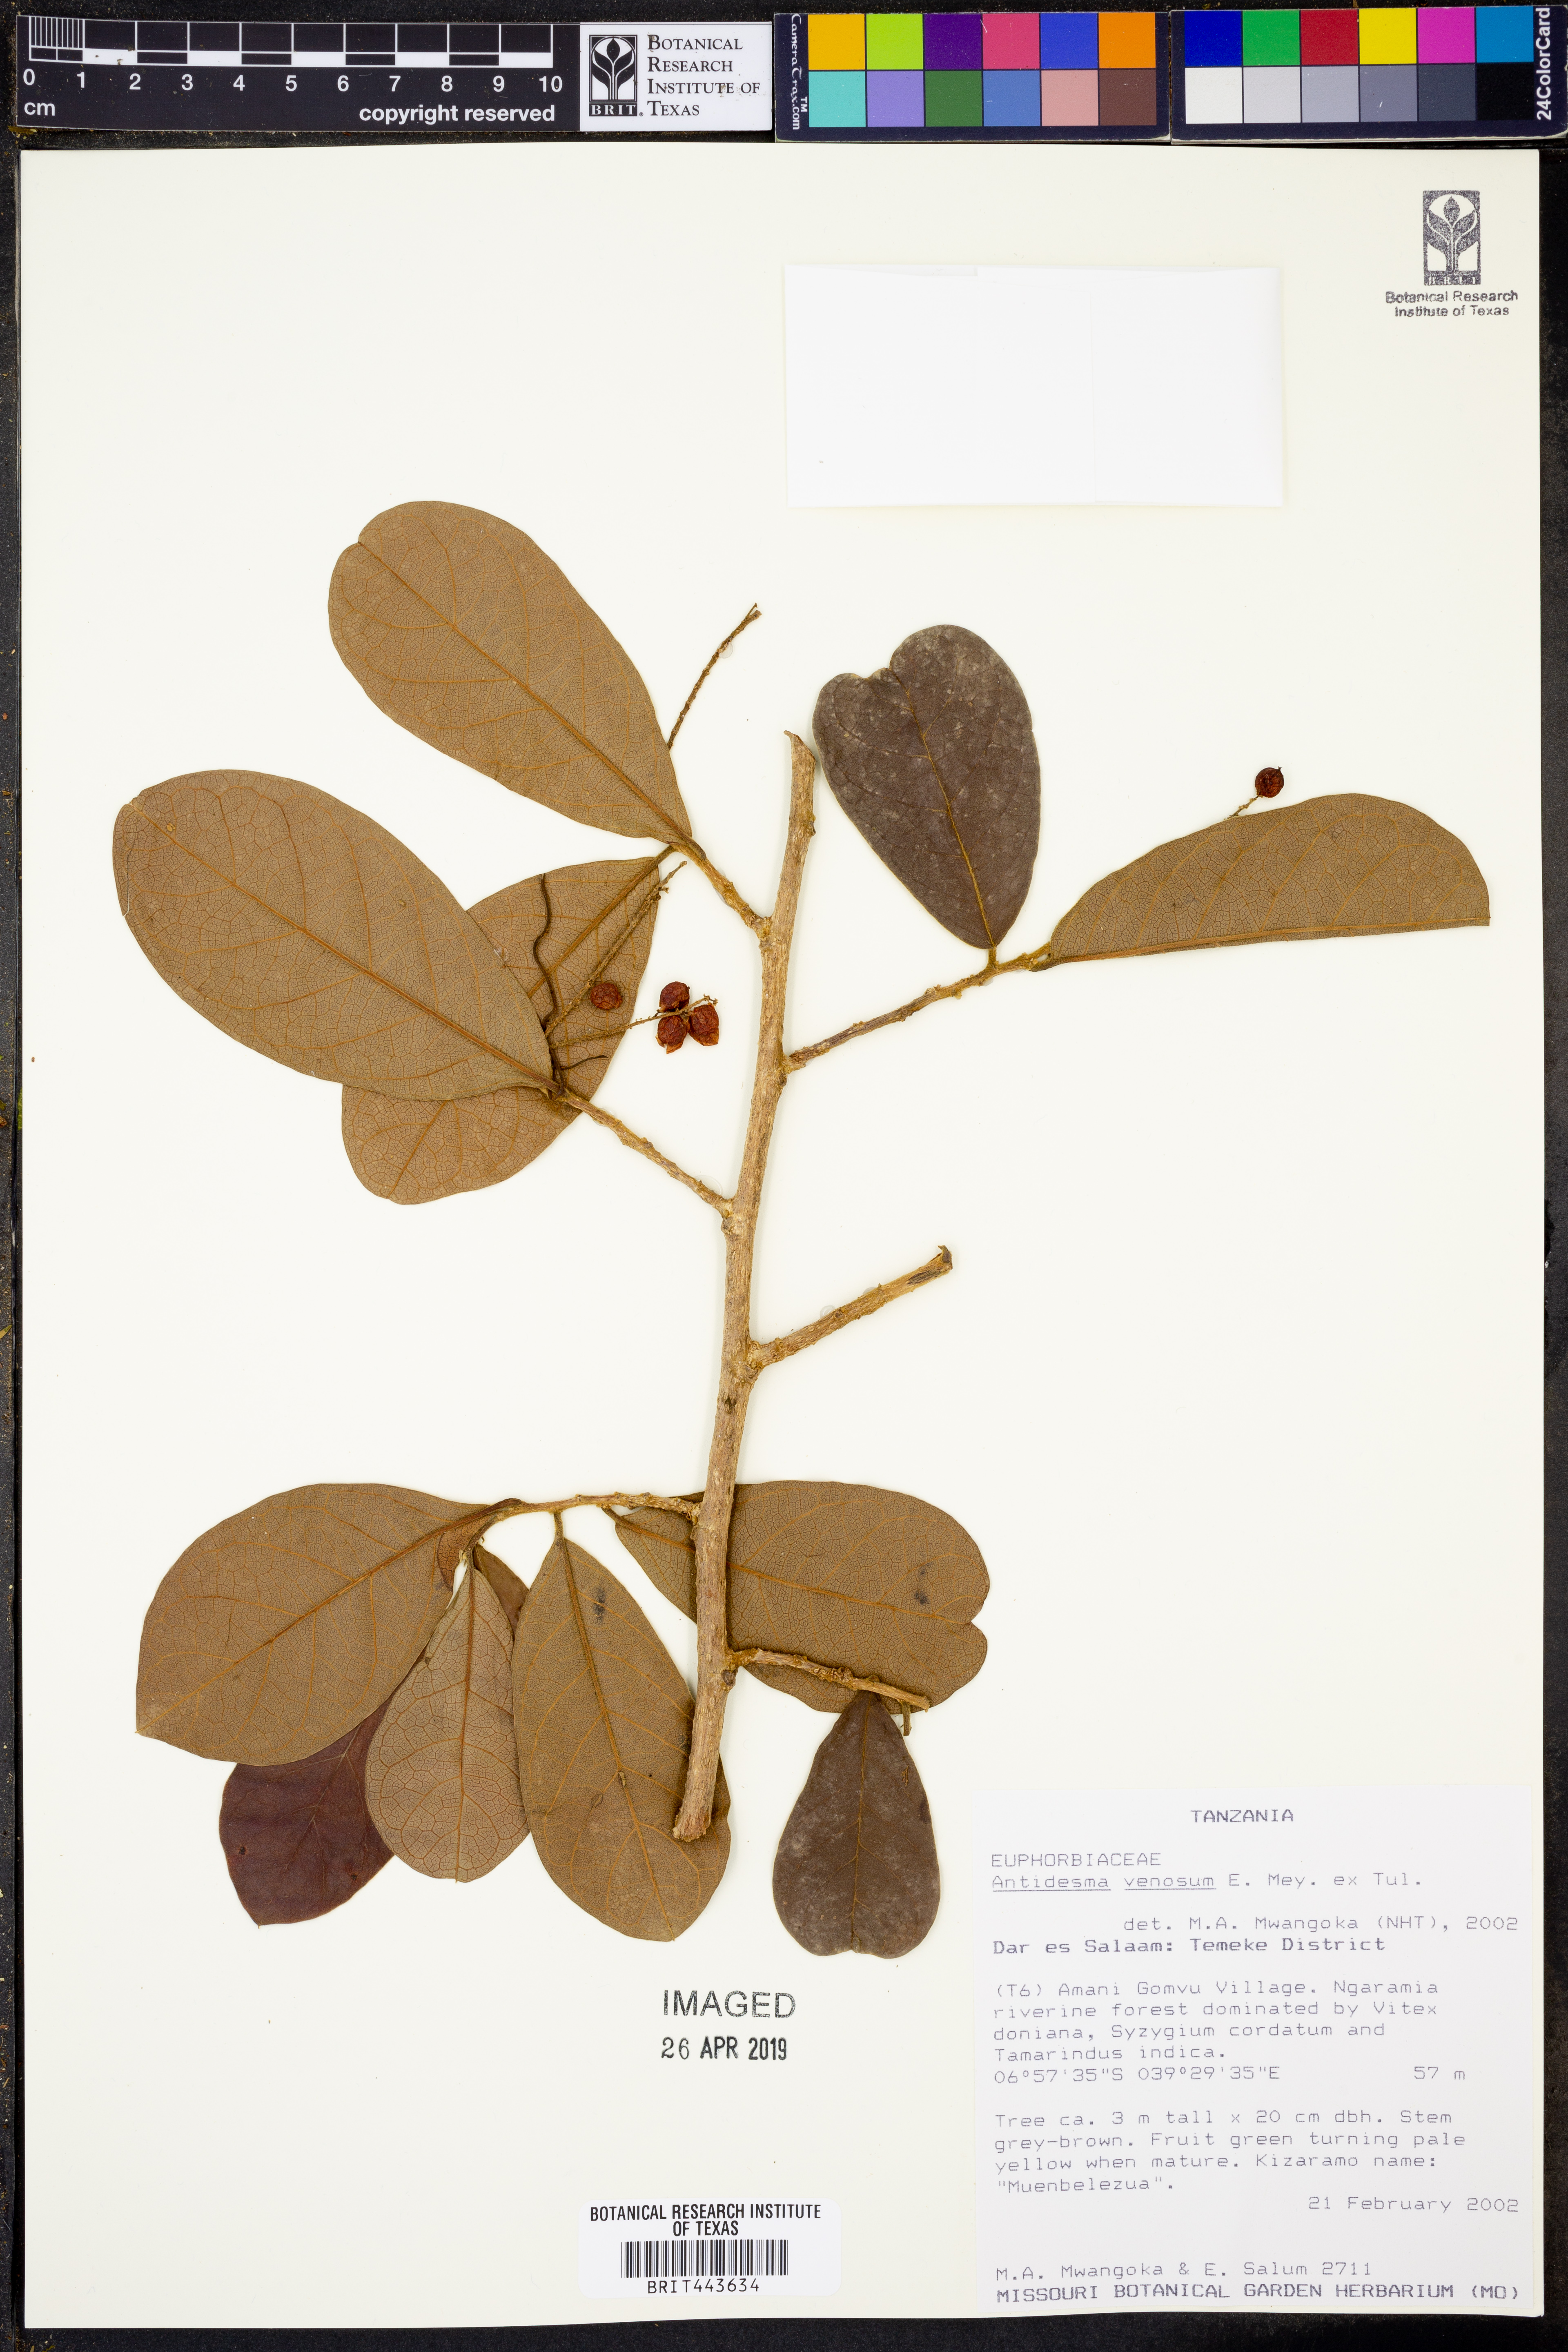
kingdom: Plantae
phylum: Tracheophyta
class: Magnoliopsida
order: Malpighiales
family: Phyllanthaceae
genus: Antidesma
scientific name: Antidesma venosum
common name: Tassel-berry
